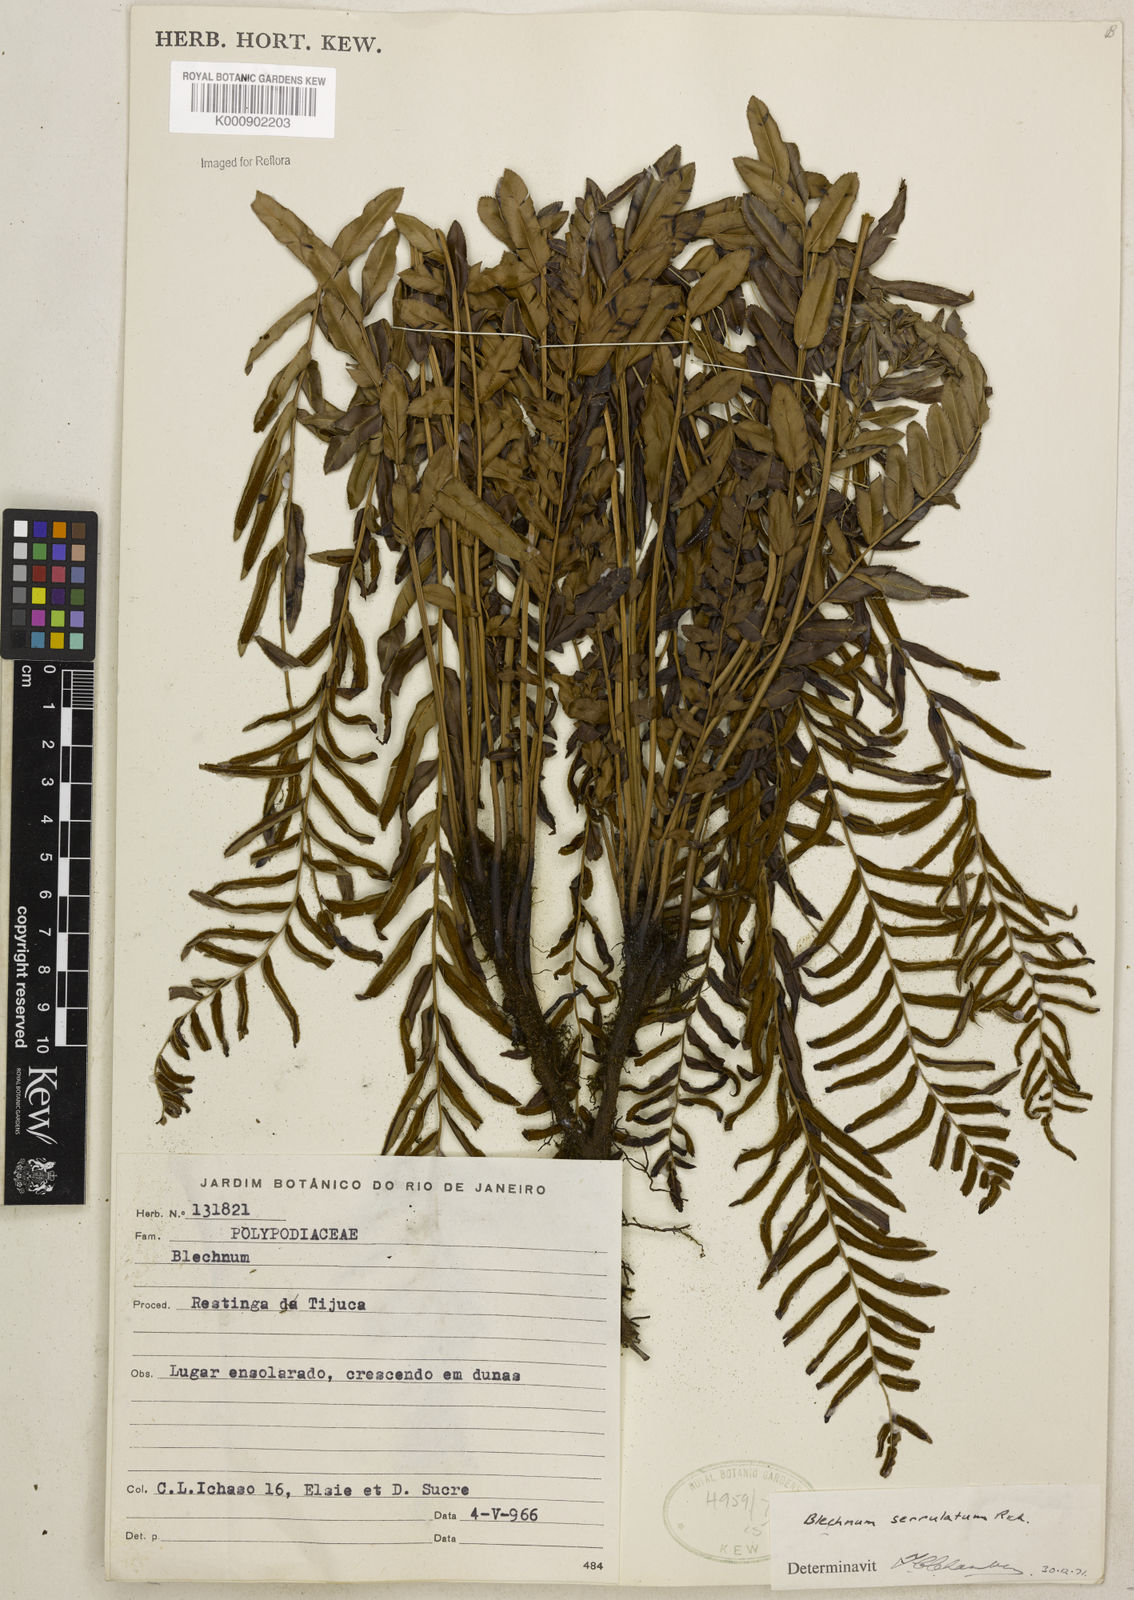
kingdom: Plantae
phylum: Tracheophyta
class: Polypodiopsida
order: Polypodiales
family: Blechnaceae
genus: Telmatoblechnum
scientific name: Telmatoblechnum serrulatum
